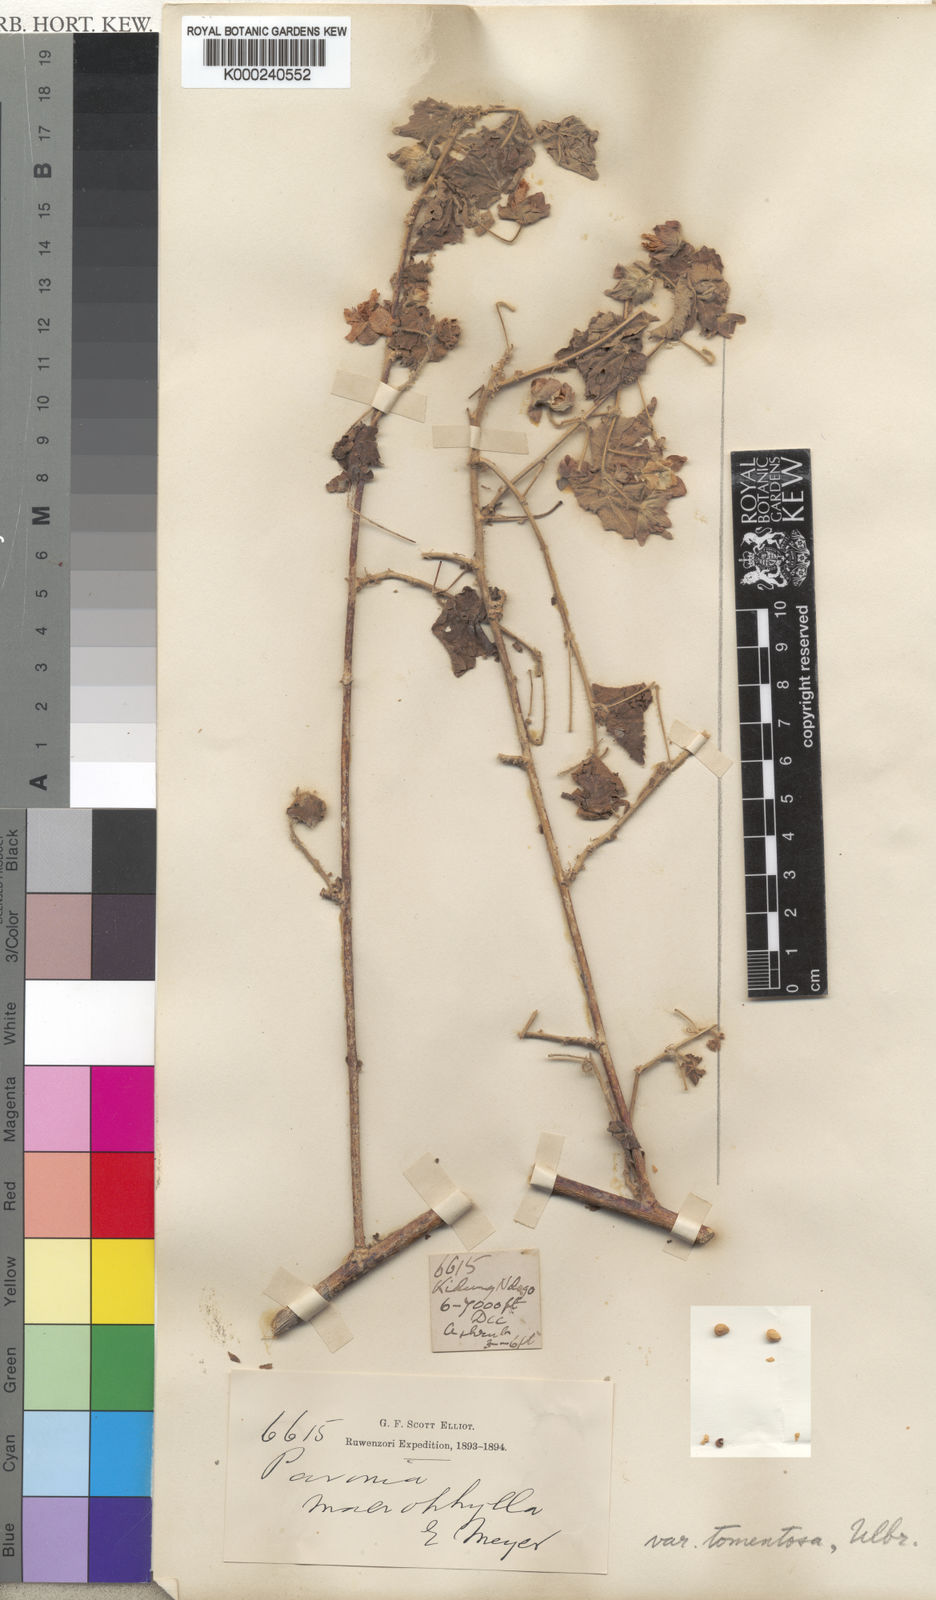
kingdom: Plantae
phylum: Tracheophyta
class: Magnoliopsida
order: Malvales
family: Malvaceae
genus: Pavonia
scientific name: Pavonia burchellii
